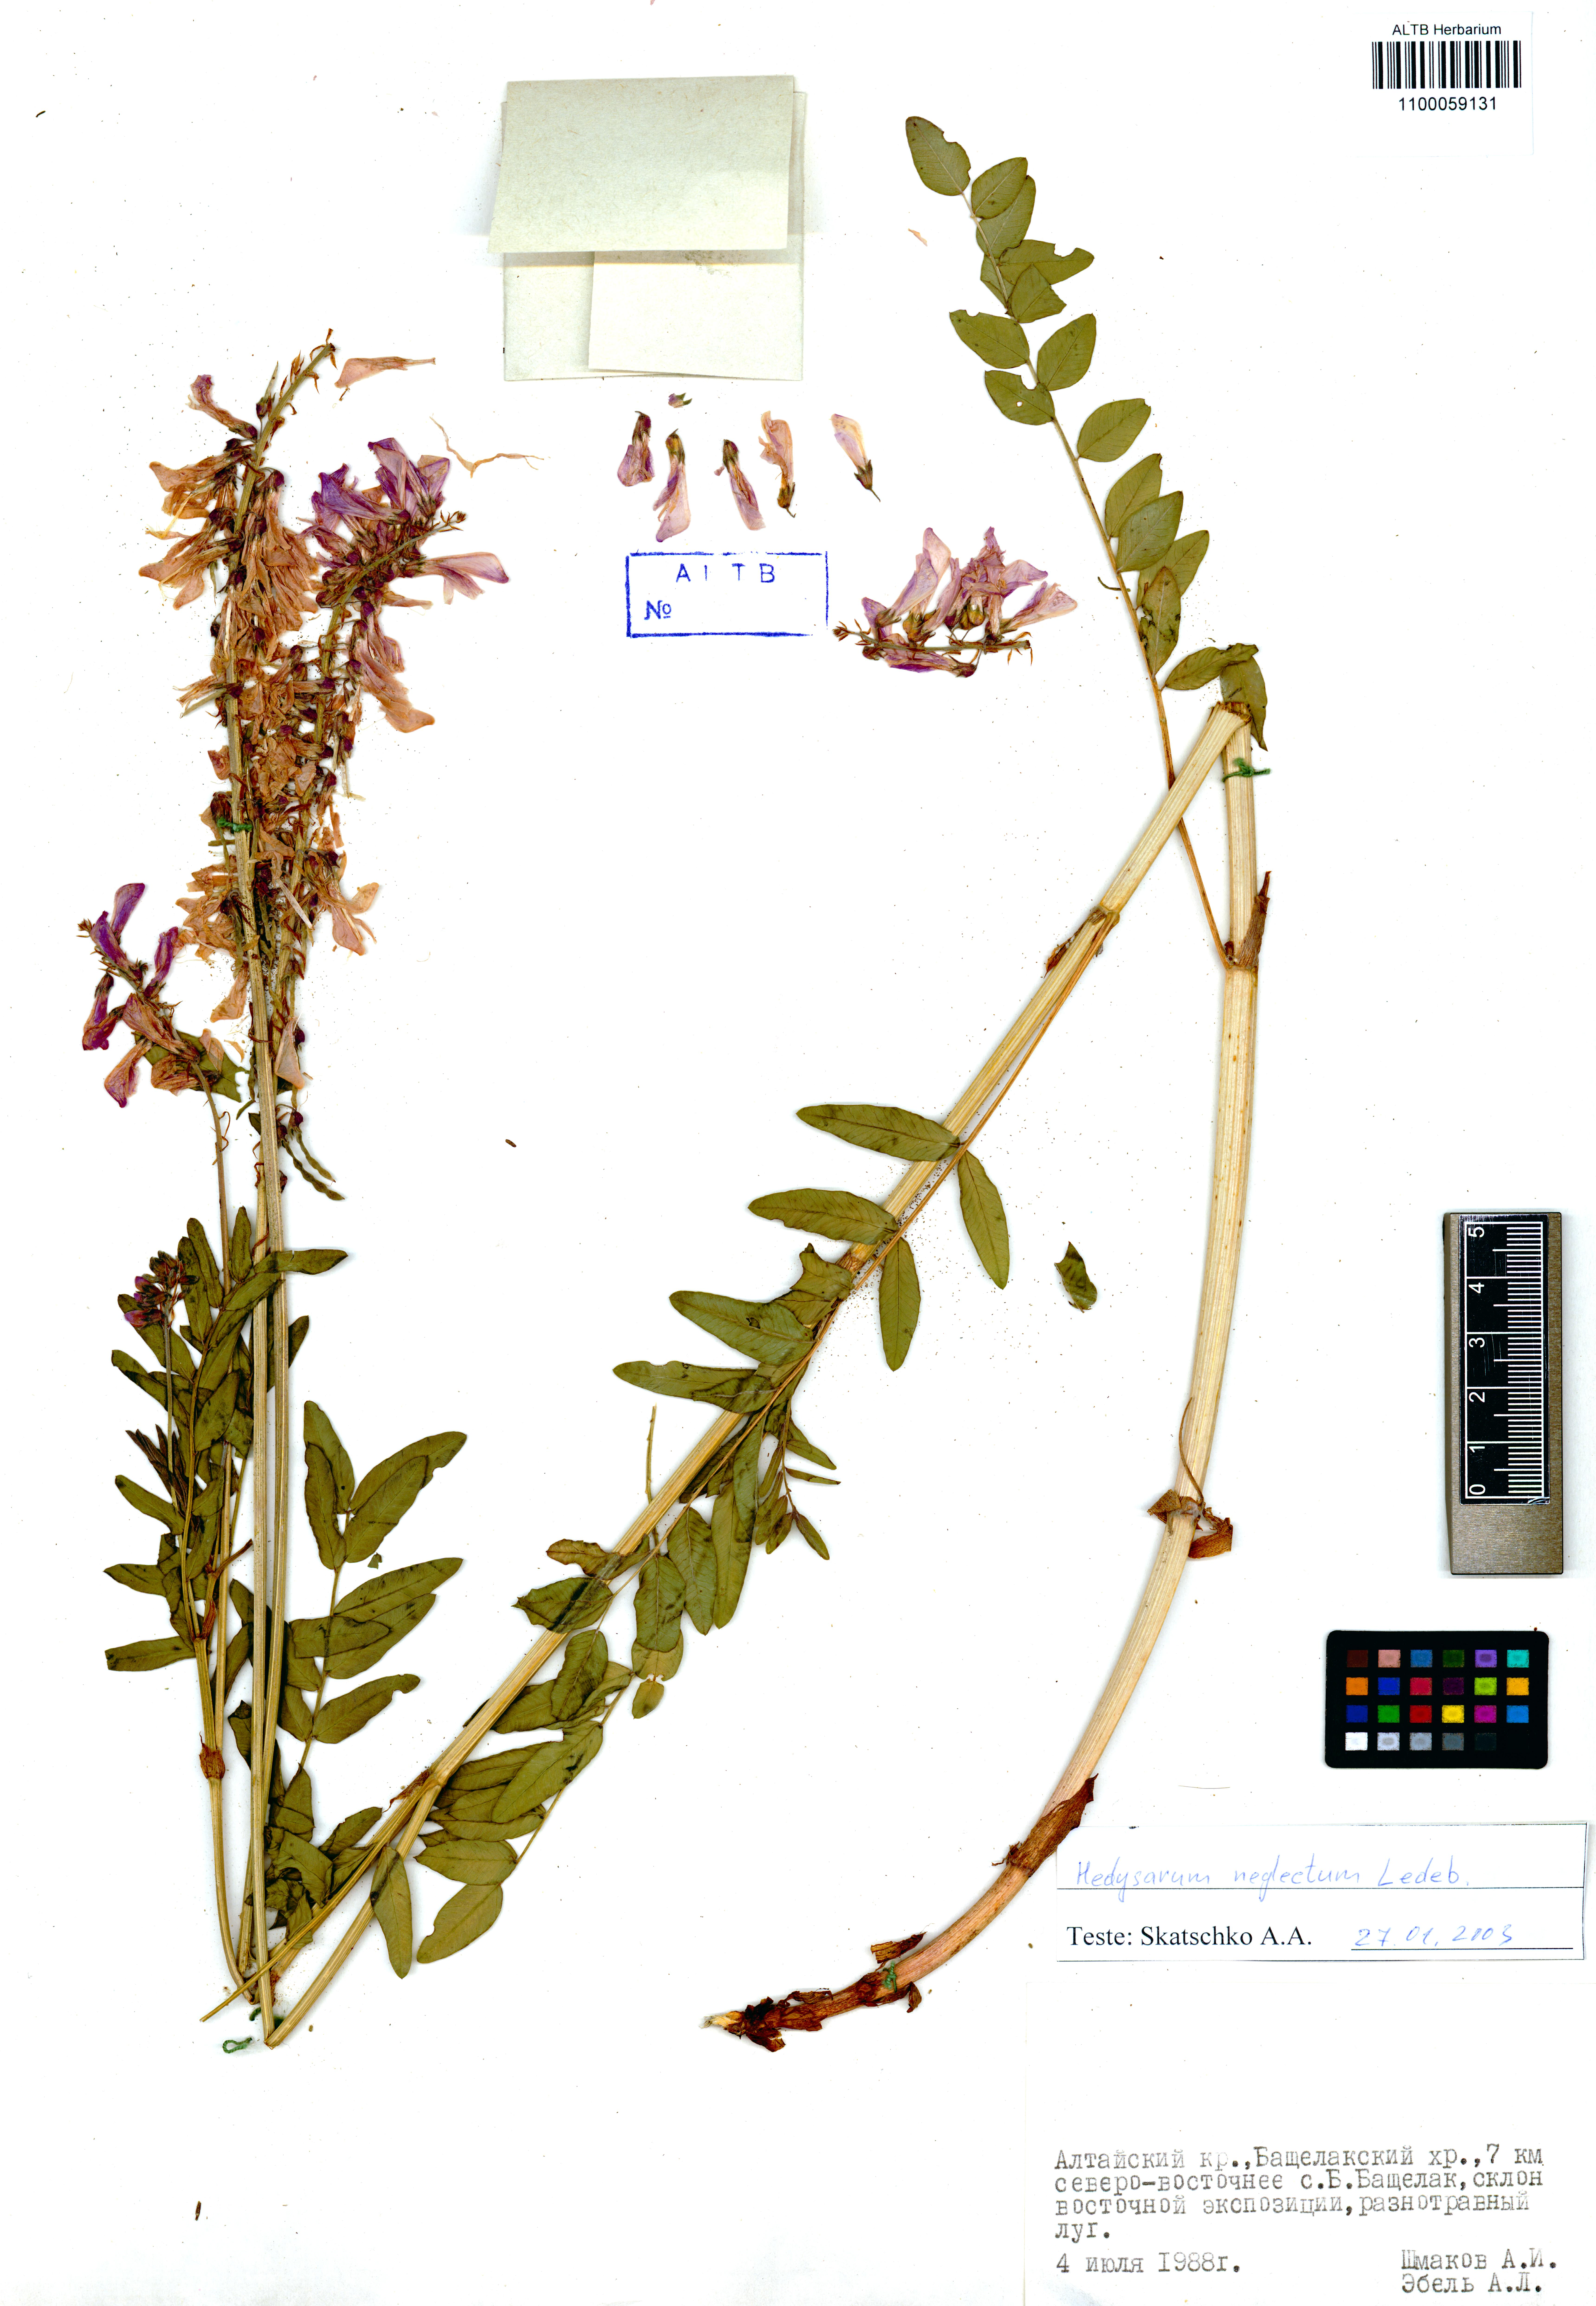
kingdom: Plantae
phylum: Tracheophyta
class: Magnoliopsida
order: Fabales
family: Fabaceae
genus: Hedysarum
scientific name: Hedysarum neglectum
